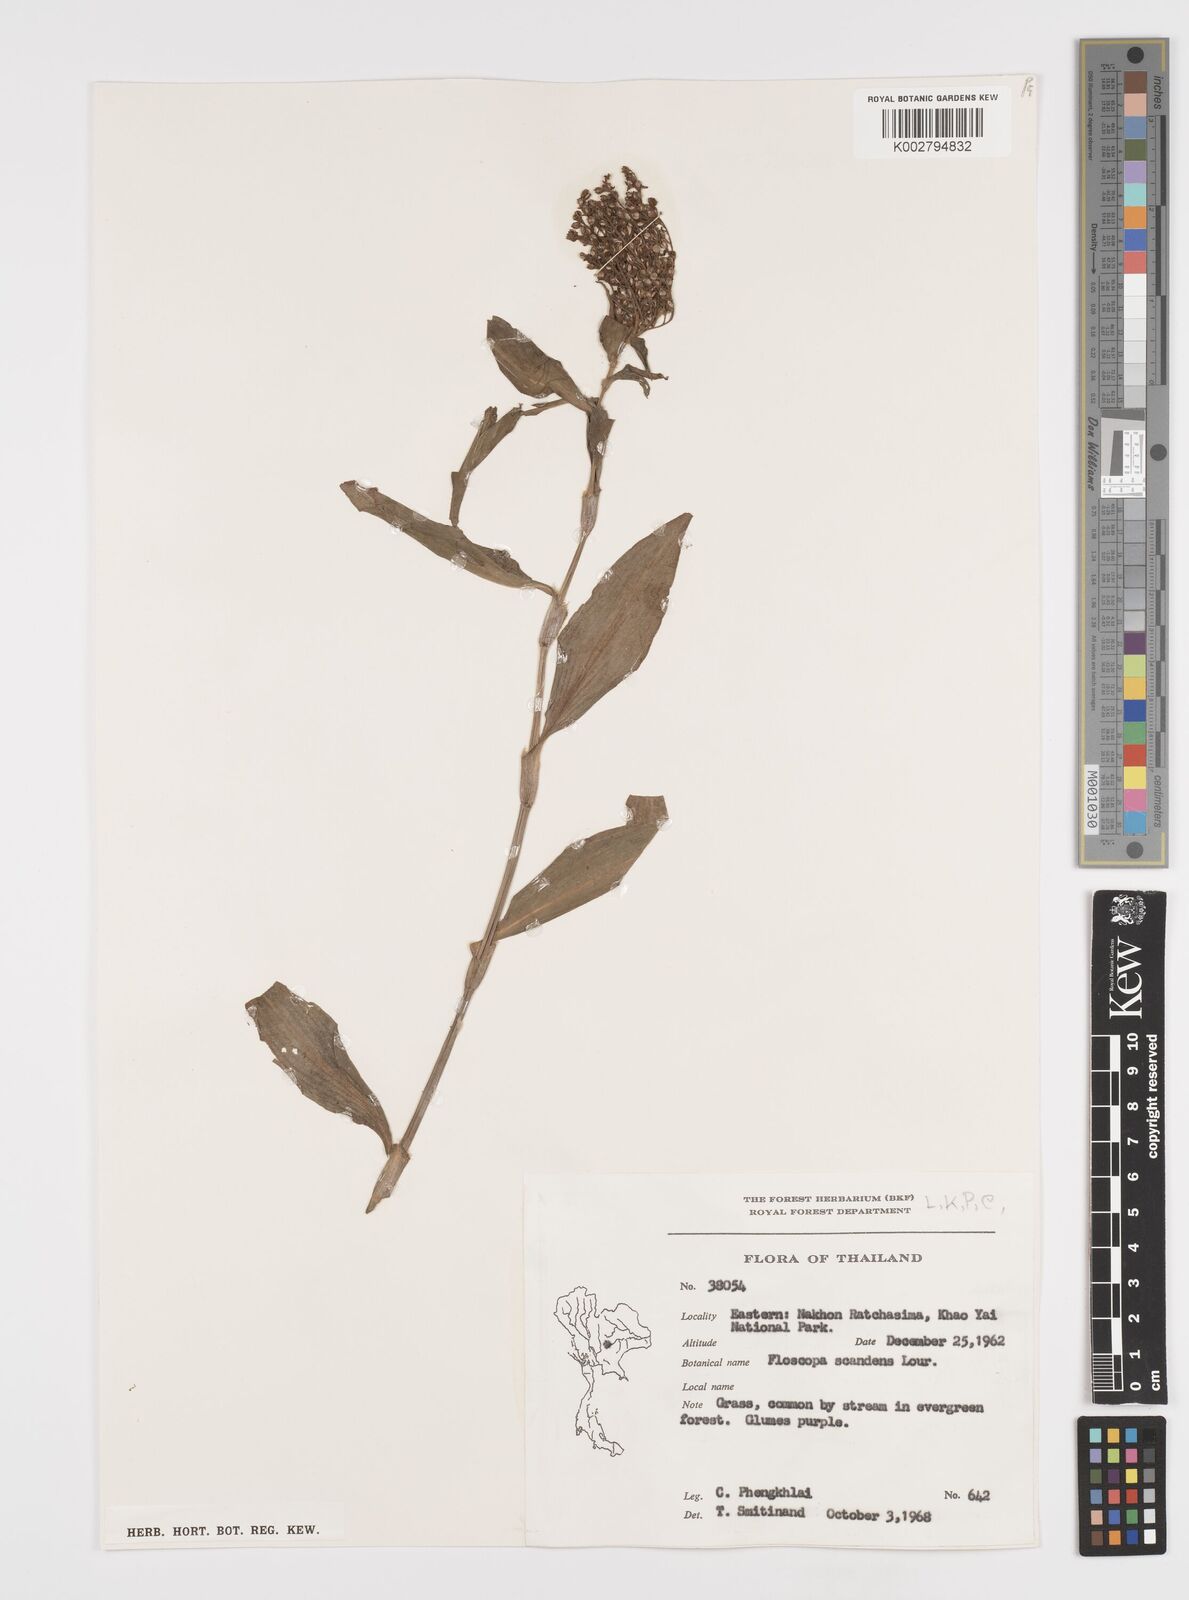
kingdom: Plantae
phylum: Tracheophyta
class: Liliopsida
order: Commelinales
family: Commelinaceae
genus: Floscopa
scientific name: Floscopa scandens
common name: Climbing flower cup
